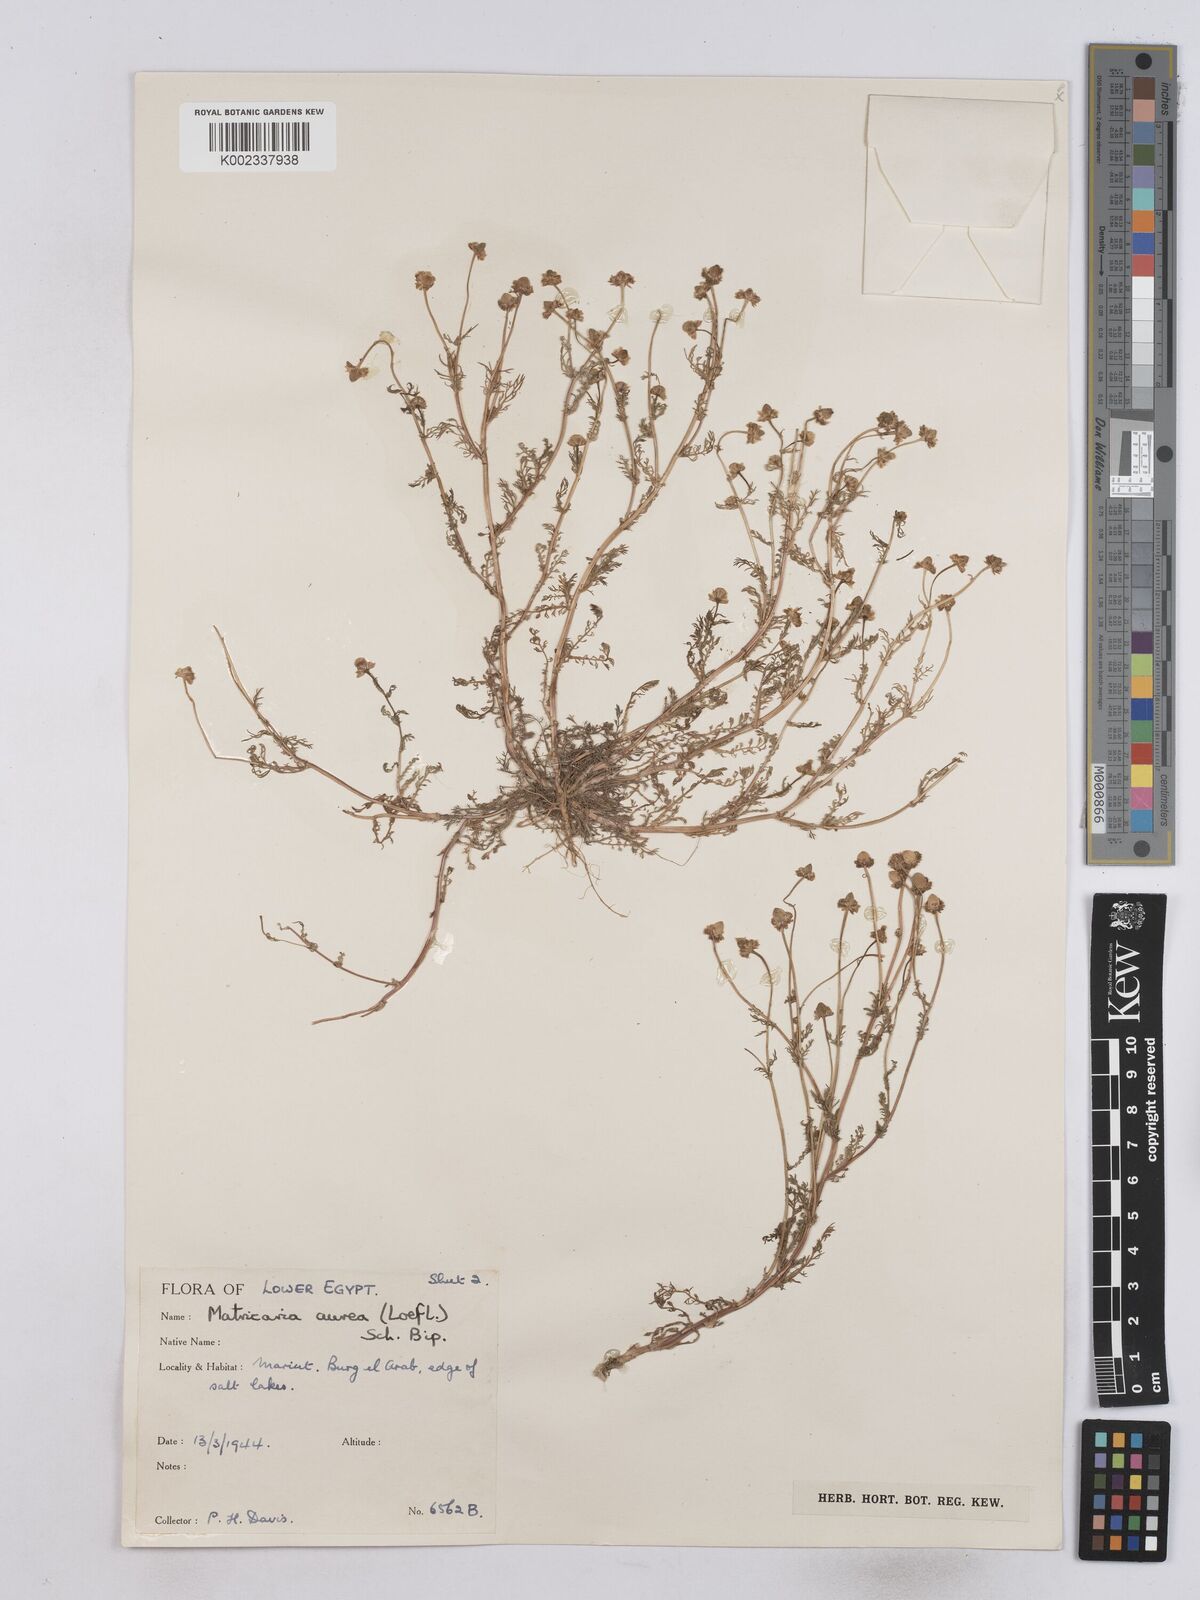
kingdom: Plantae
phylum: Tracheophyta
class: Magnoliopsida
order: Asterales
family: Asteraceae
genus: Matricaria
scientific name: Matricaria aurea
